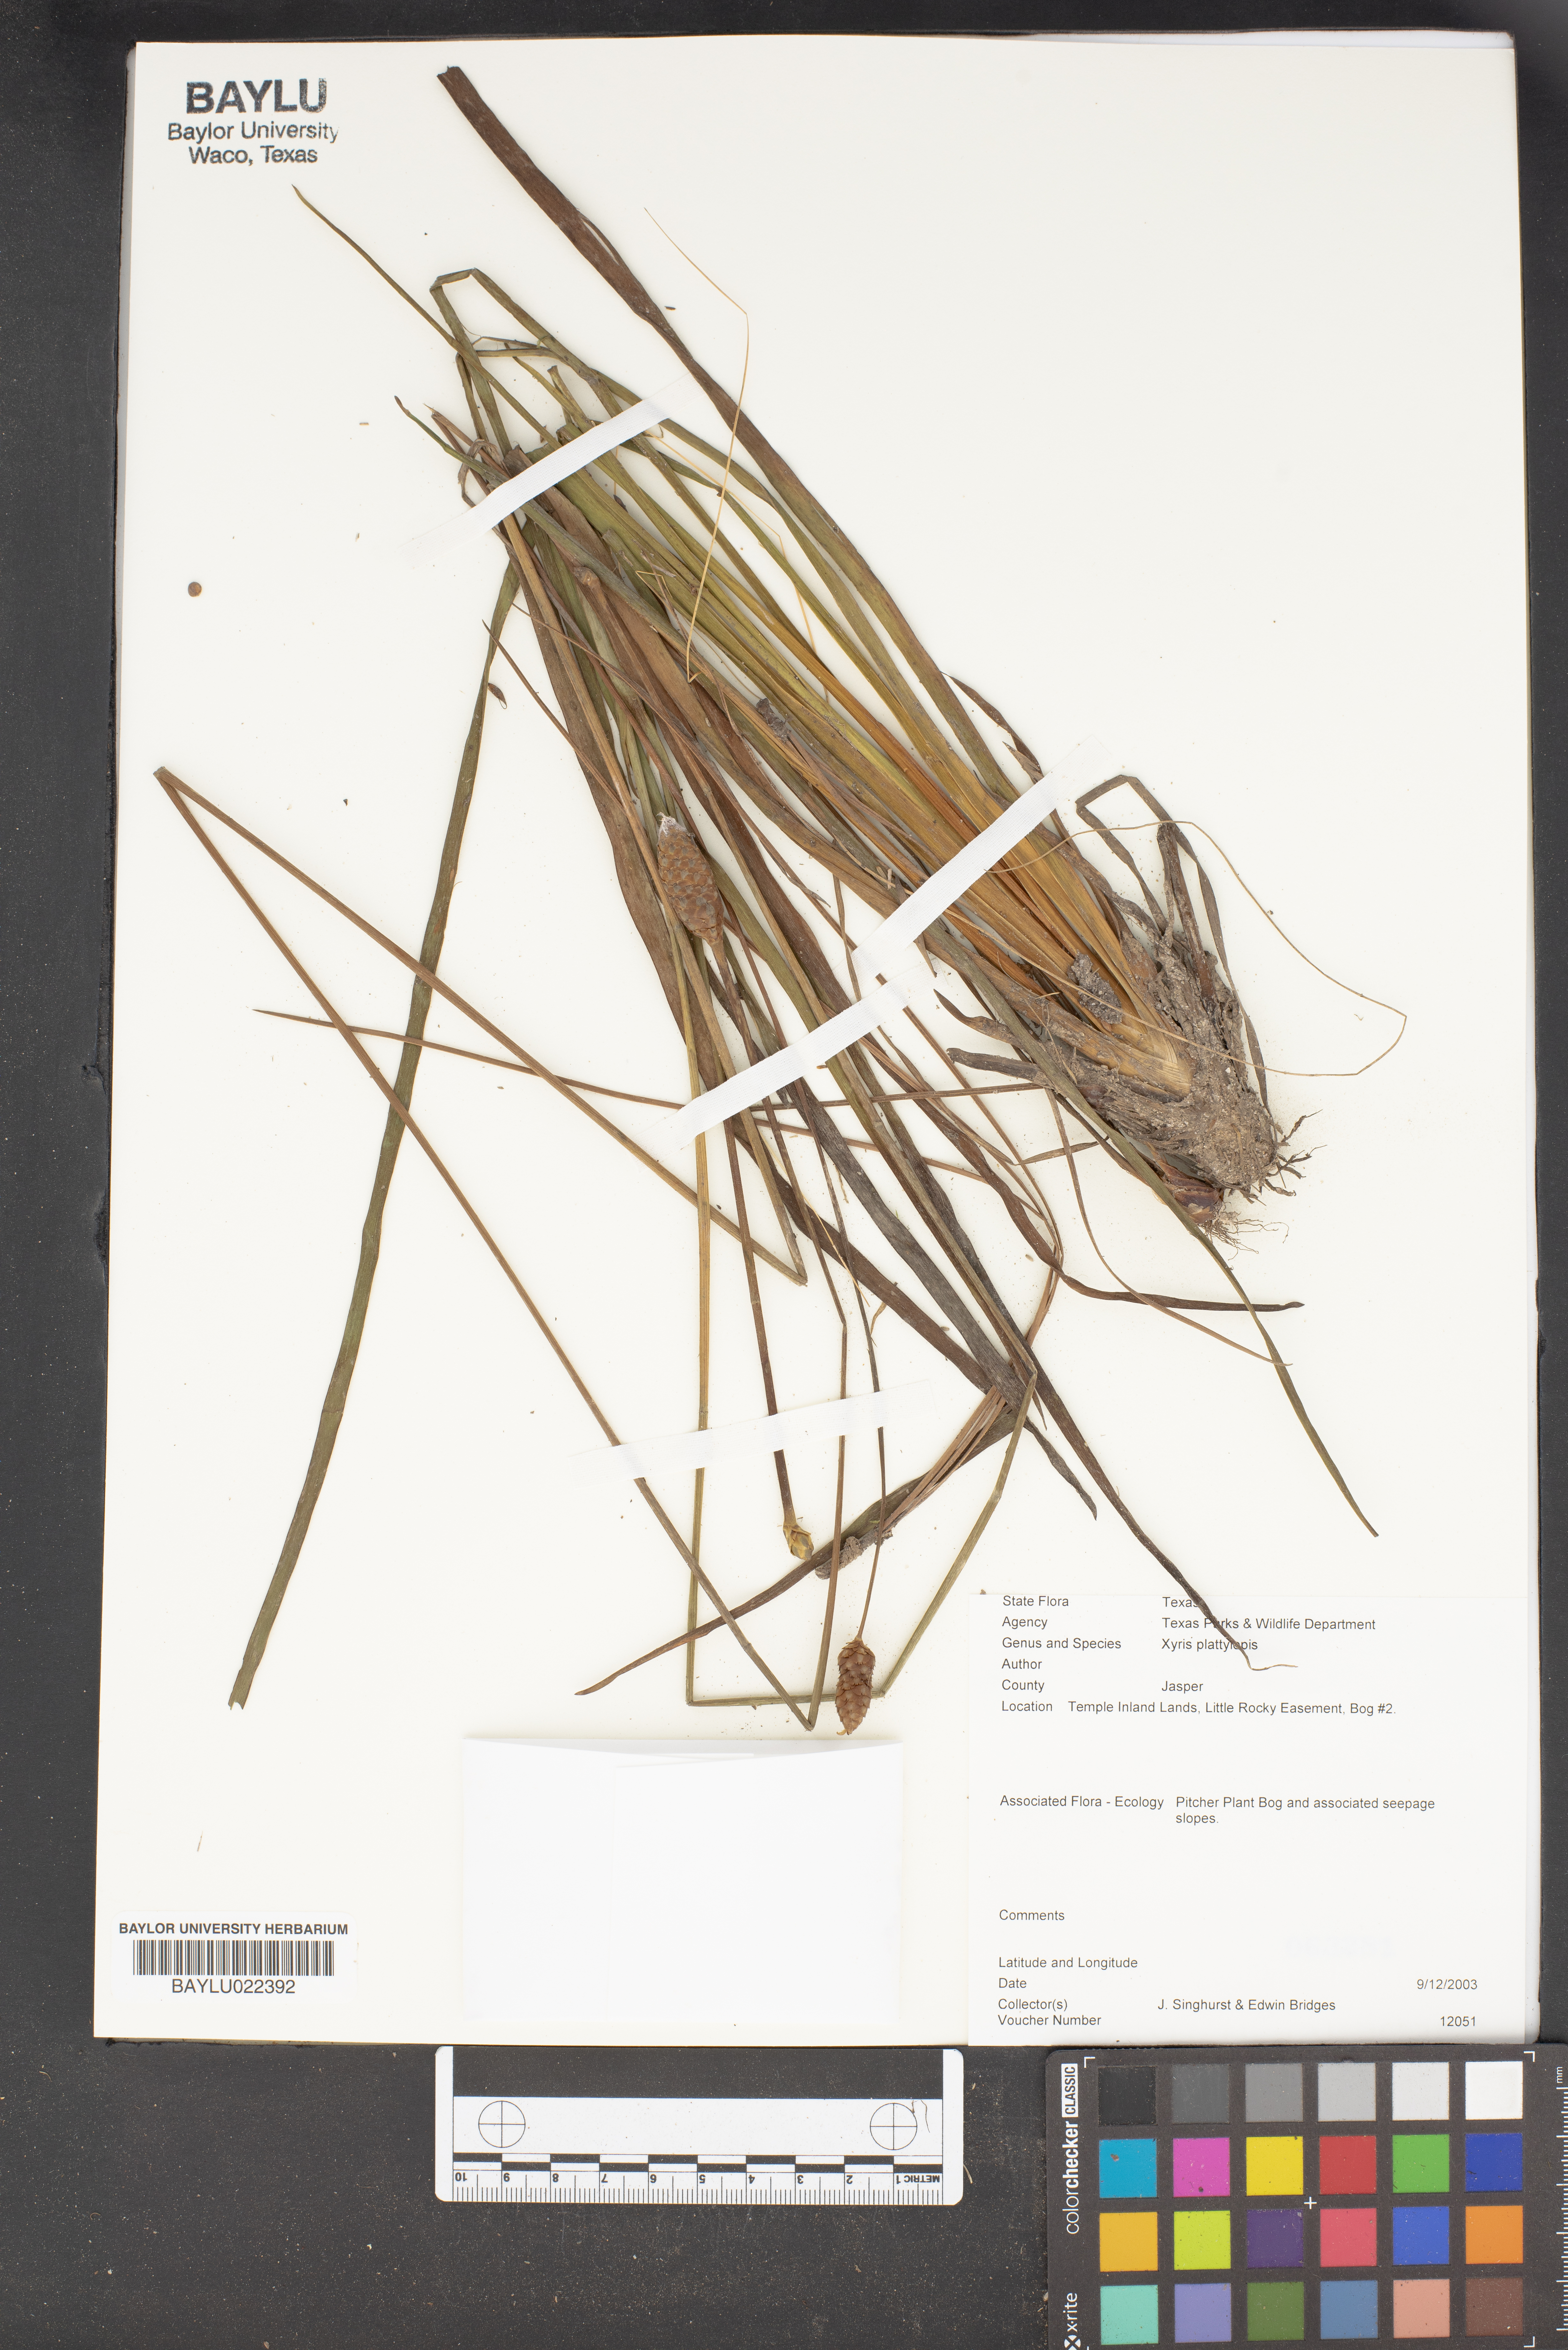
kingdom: Plantae
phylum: Tracheophyta
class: Liliopsida
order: Poales
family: Xyridaceae
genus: Xyris
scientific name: Xyris platylepis
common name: Tall yelloweyed grass
